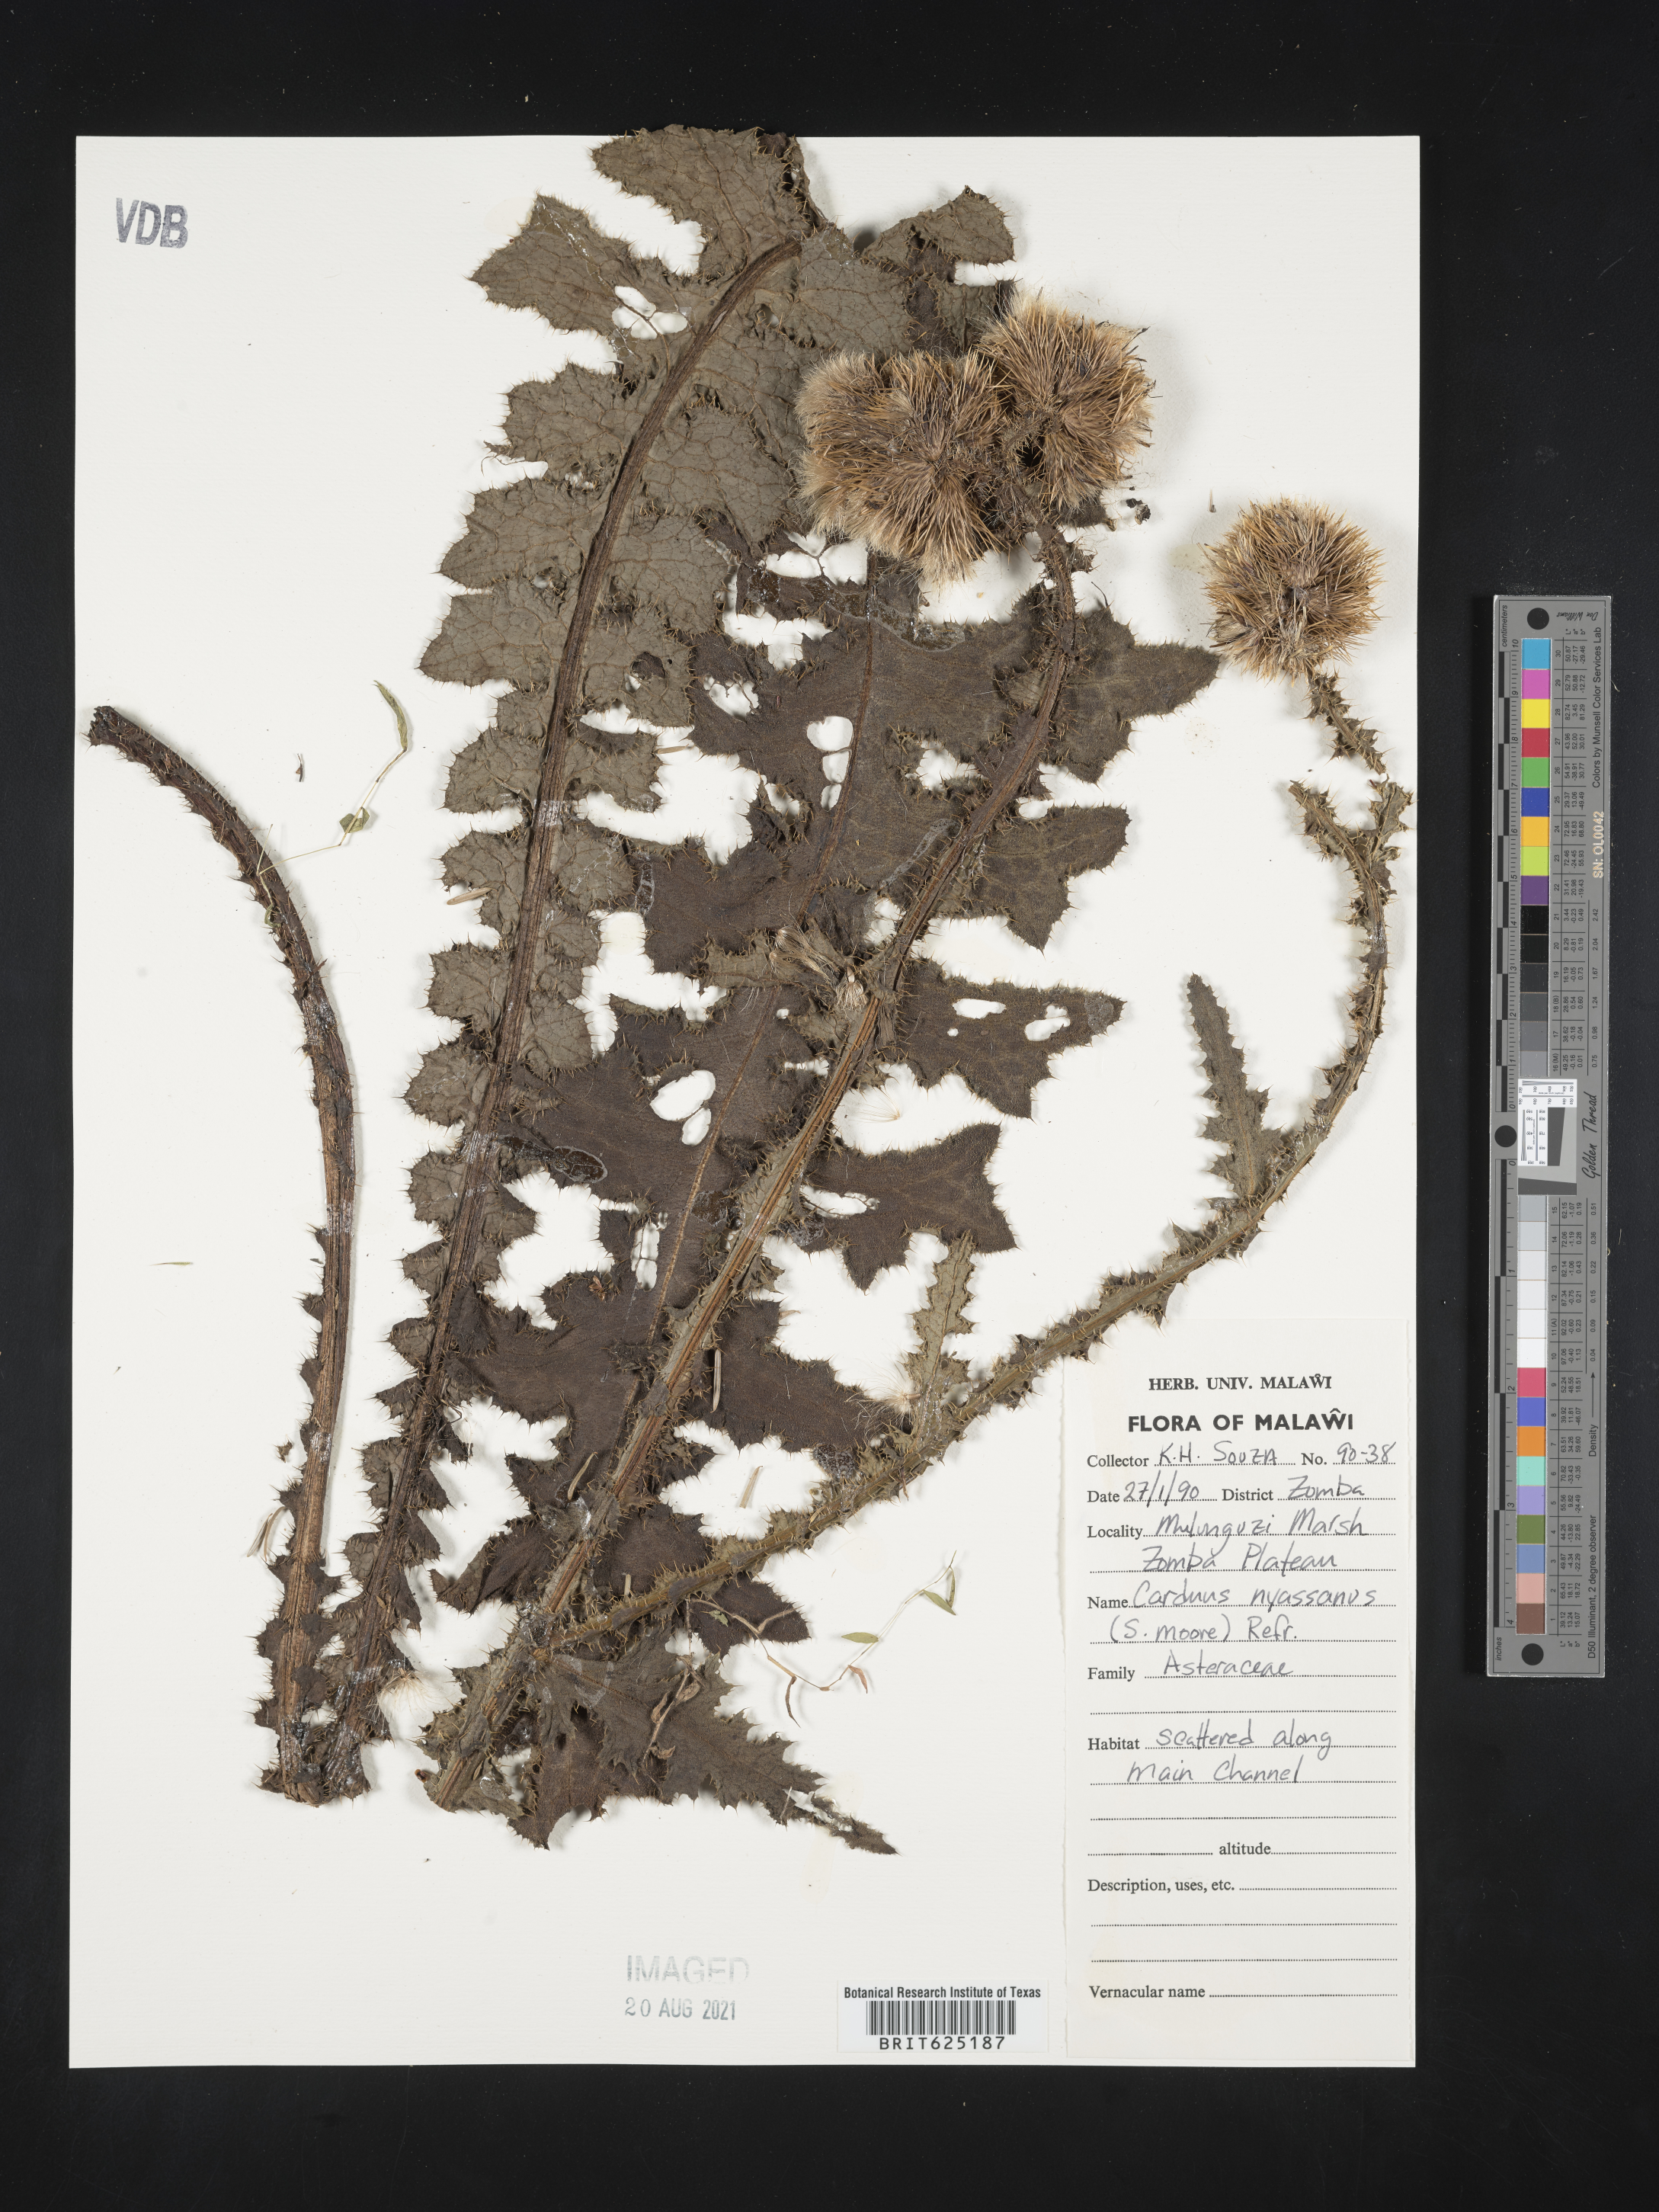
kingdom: Plantae
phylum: Tracheophyta
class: Magnoliopsida
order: Asterales
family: Asteraceae
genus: Carduus
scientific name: Carduus nyassanus
